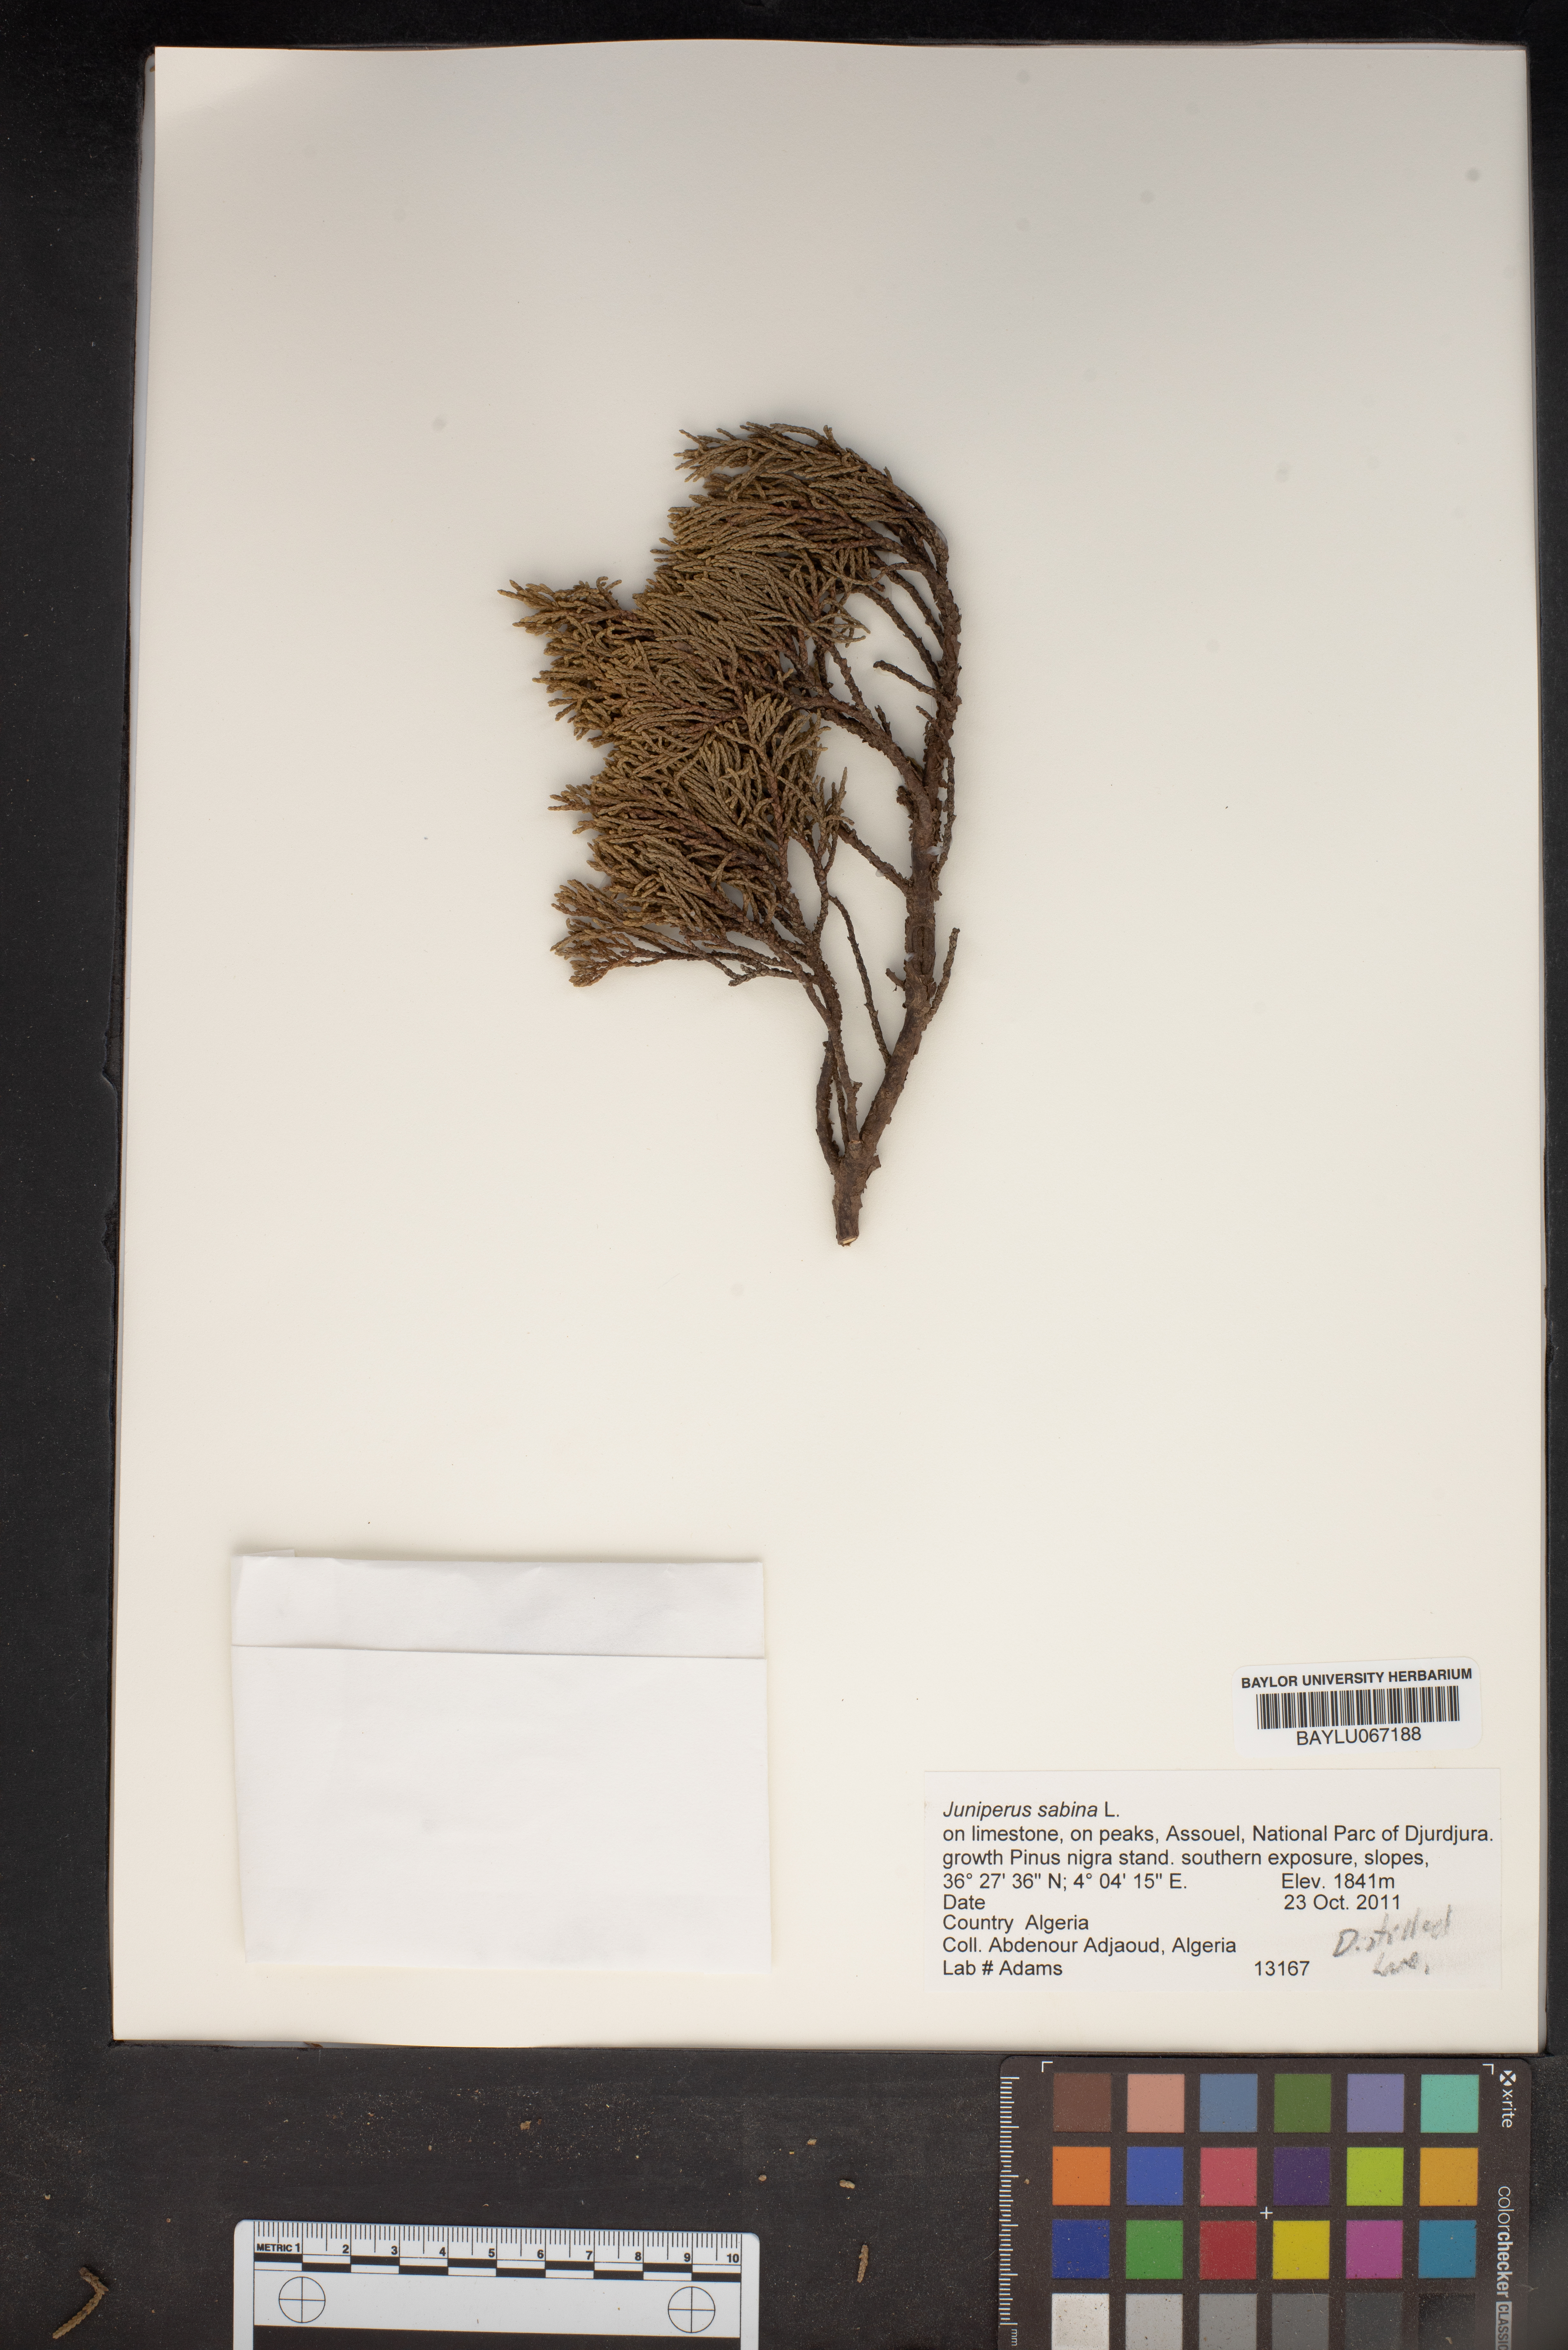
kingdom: Plantae
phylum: Tracheophyta
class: Pinopsida
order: Pinales
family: Cupressaceae
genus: Juniperus
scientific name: Juniperus sabina
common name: Savin
